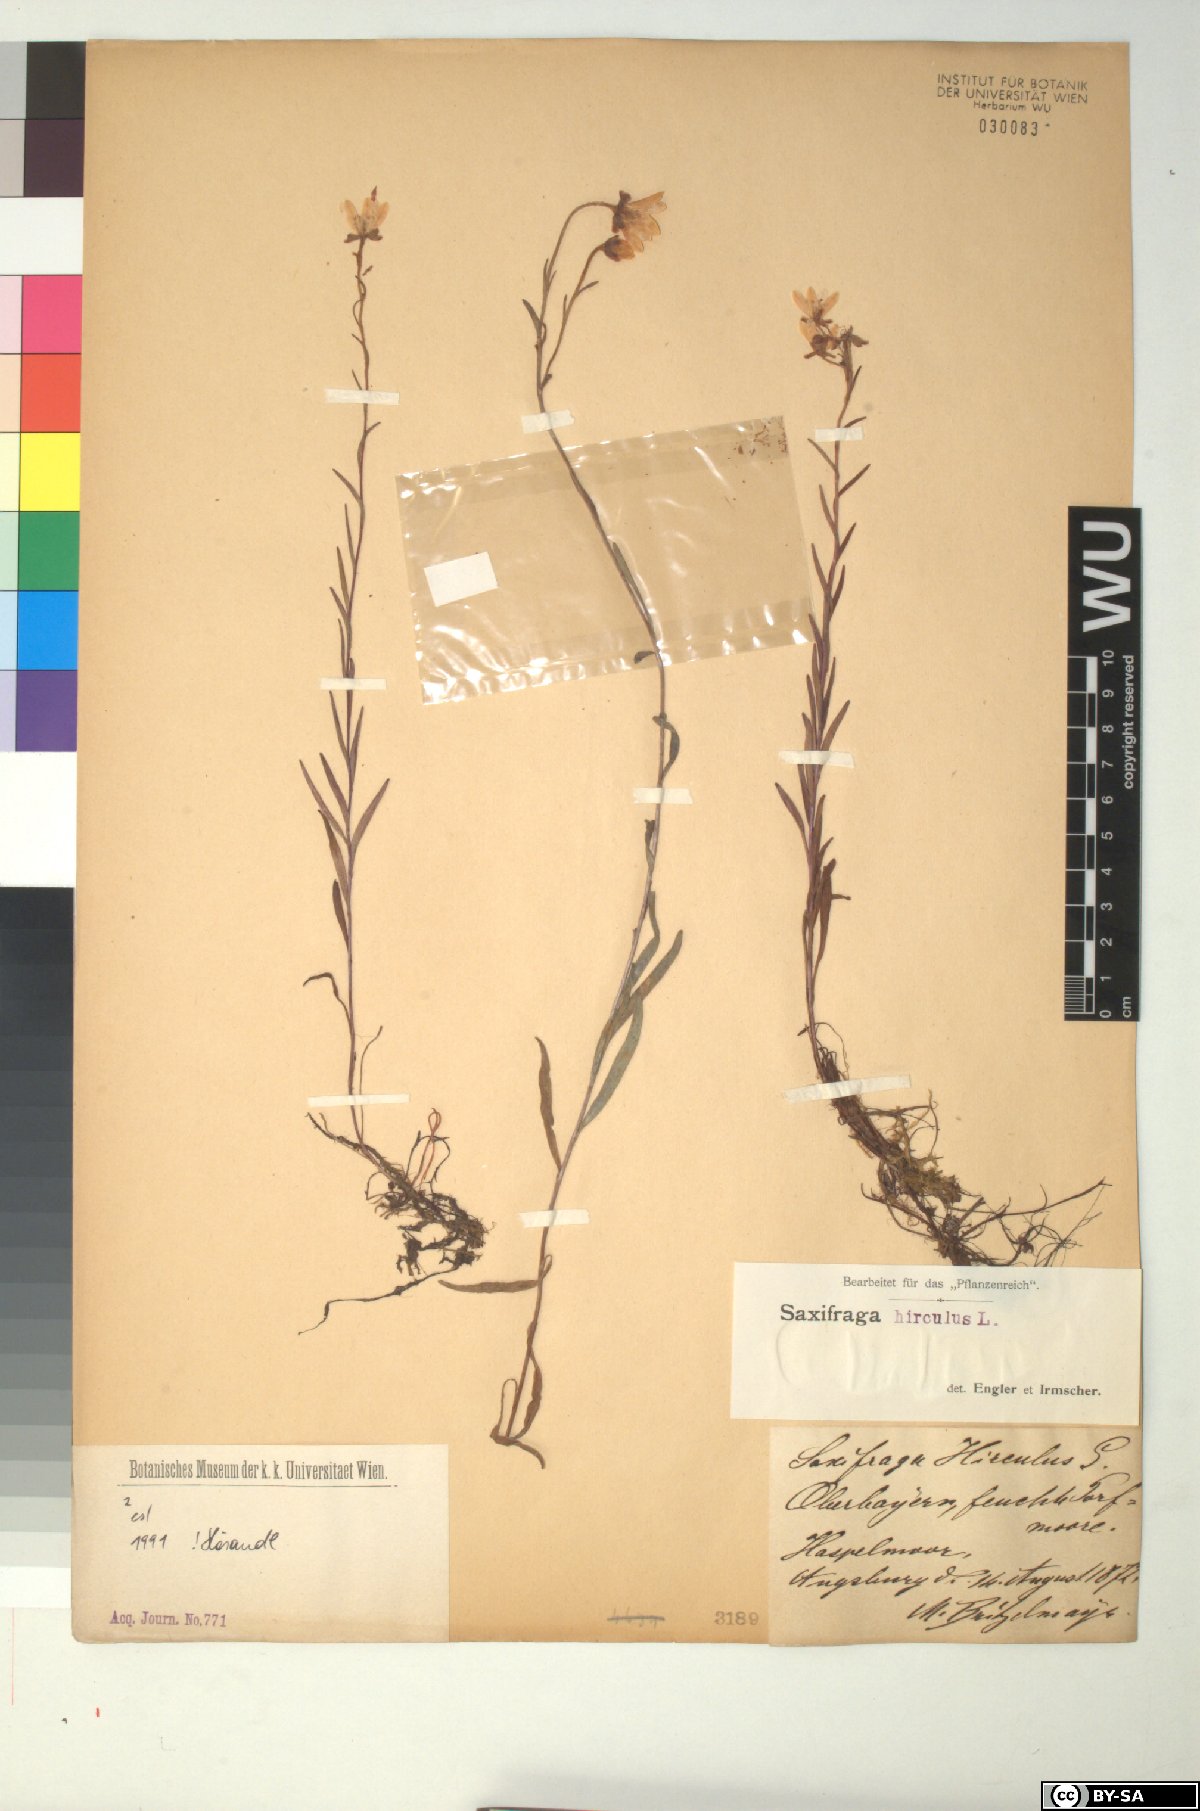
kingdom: Plantae
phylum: Tracheophyta
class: Magnoliopsida
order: Saxifragales
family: Saxifragaceae
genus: Saxifraga
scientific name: Saxifraga hirculus
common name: Yellow marsh saxifrage
